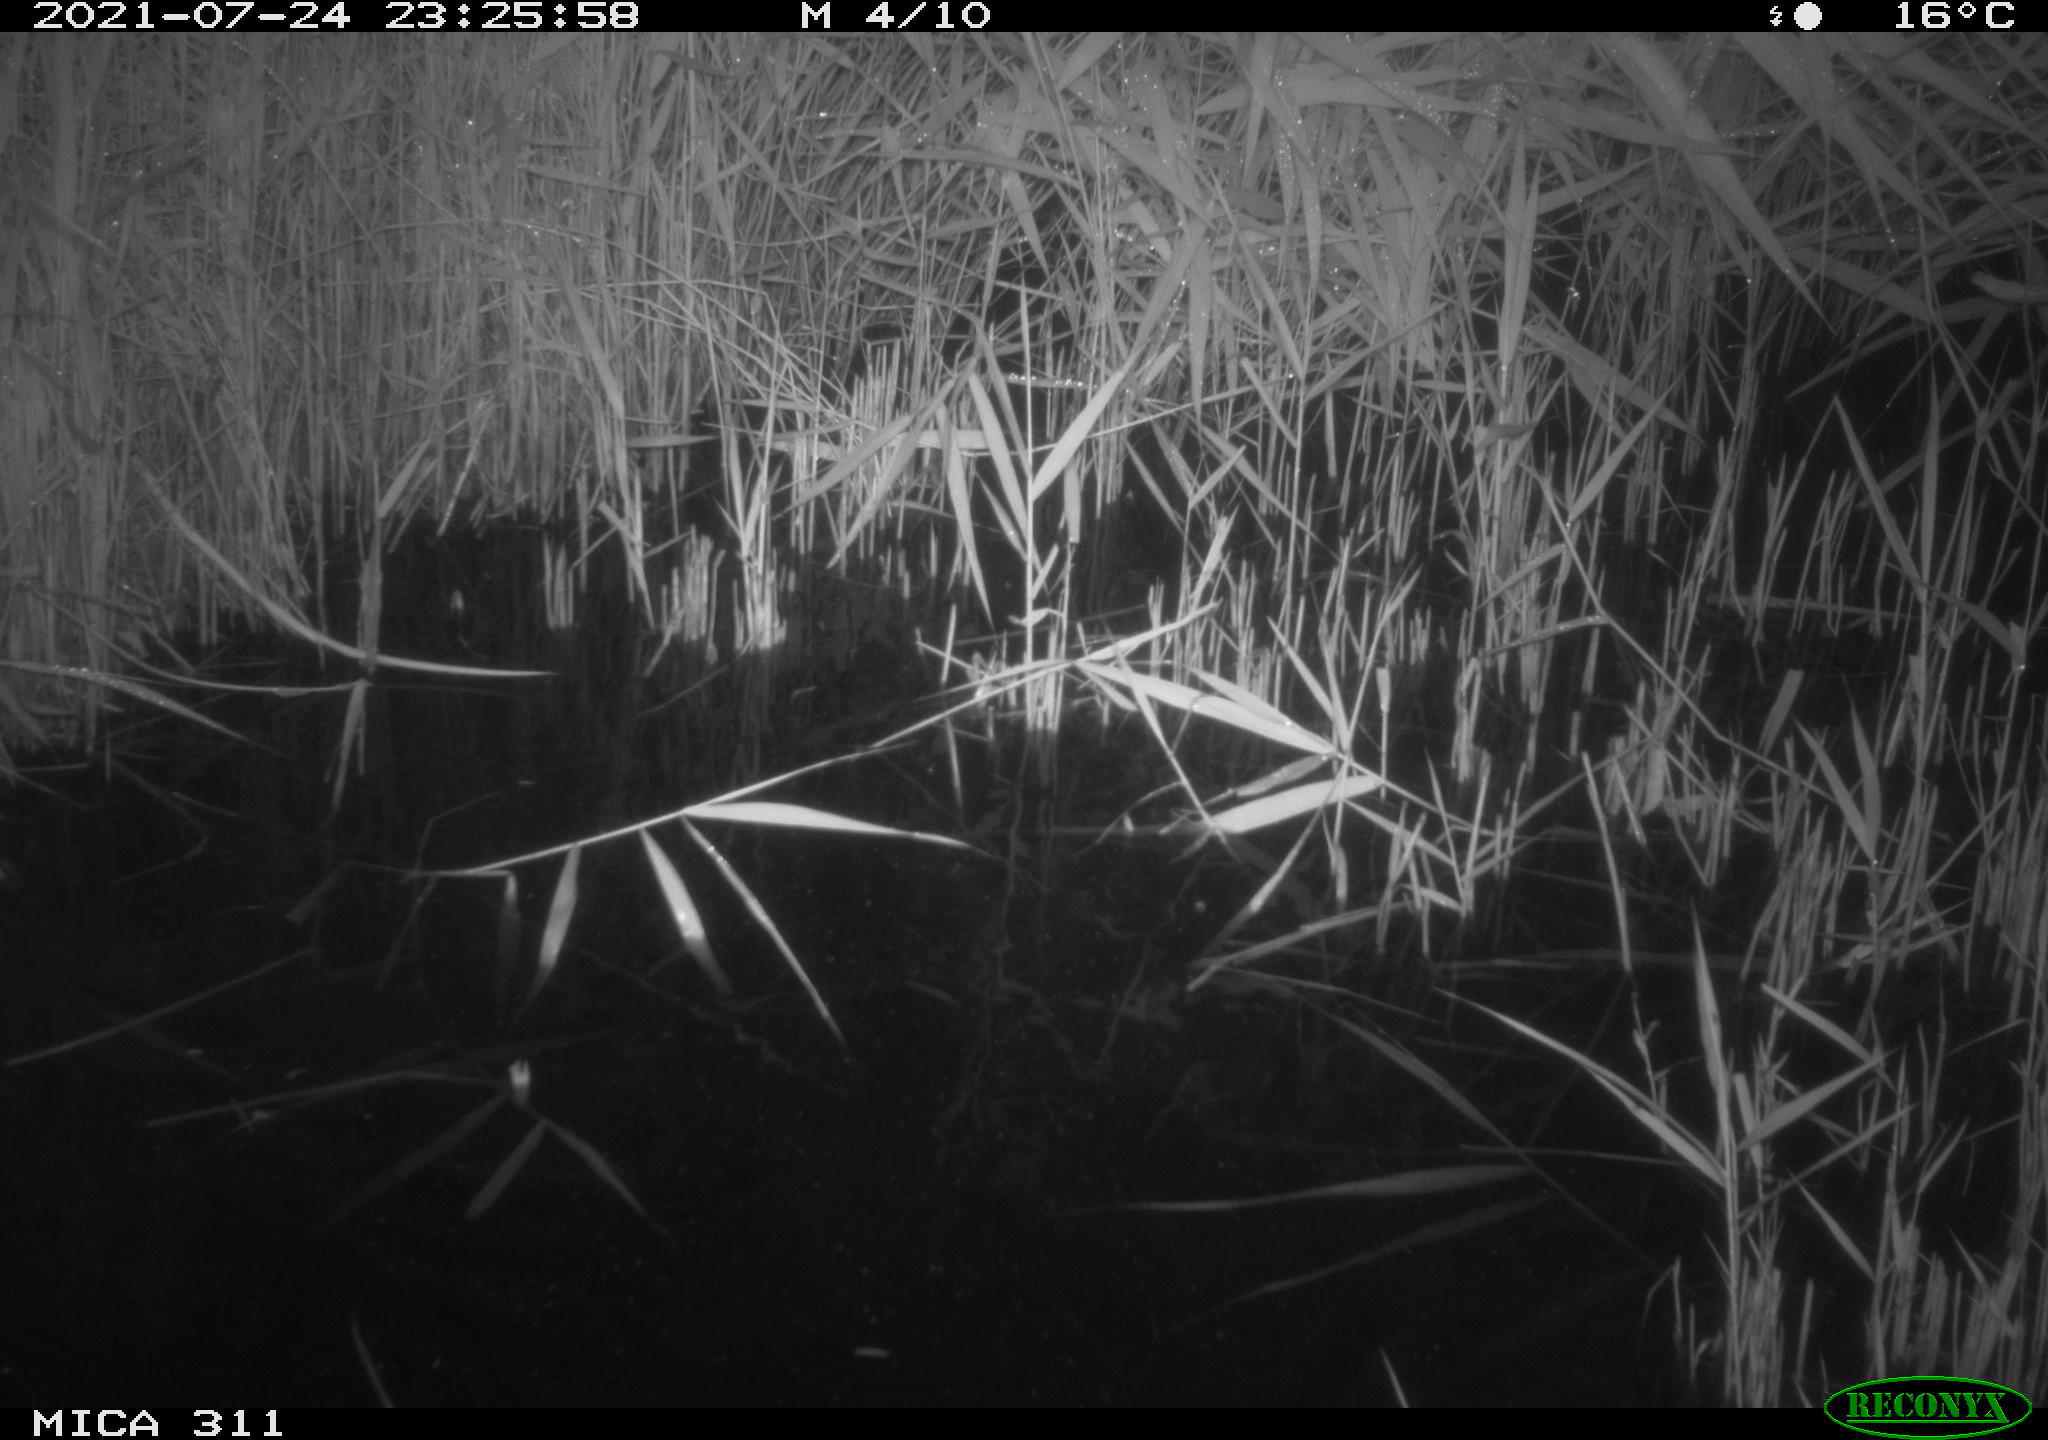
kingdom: Animalia
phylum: Chordata
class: Mammalia
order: Rodentia
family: Muridae
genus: Rattus
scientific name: Rattus norvegicus
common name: Brown rat
